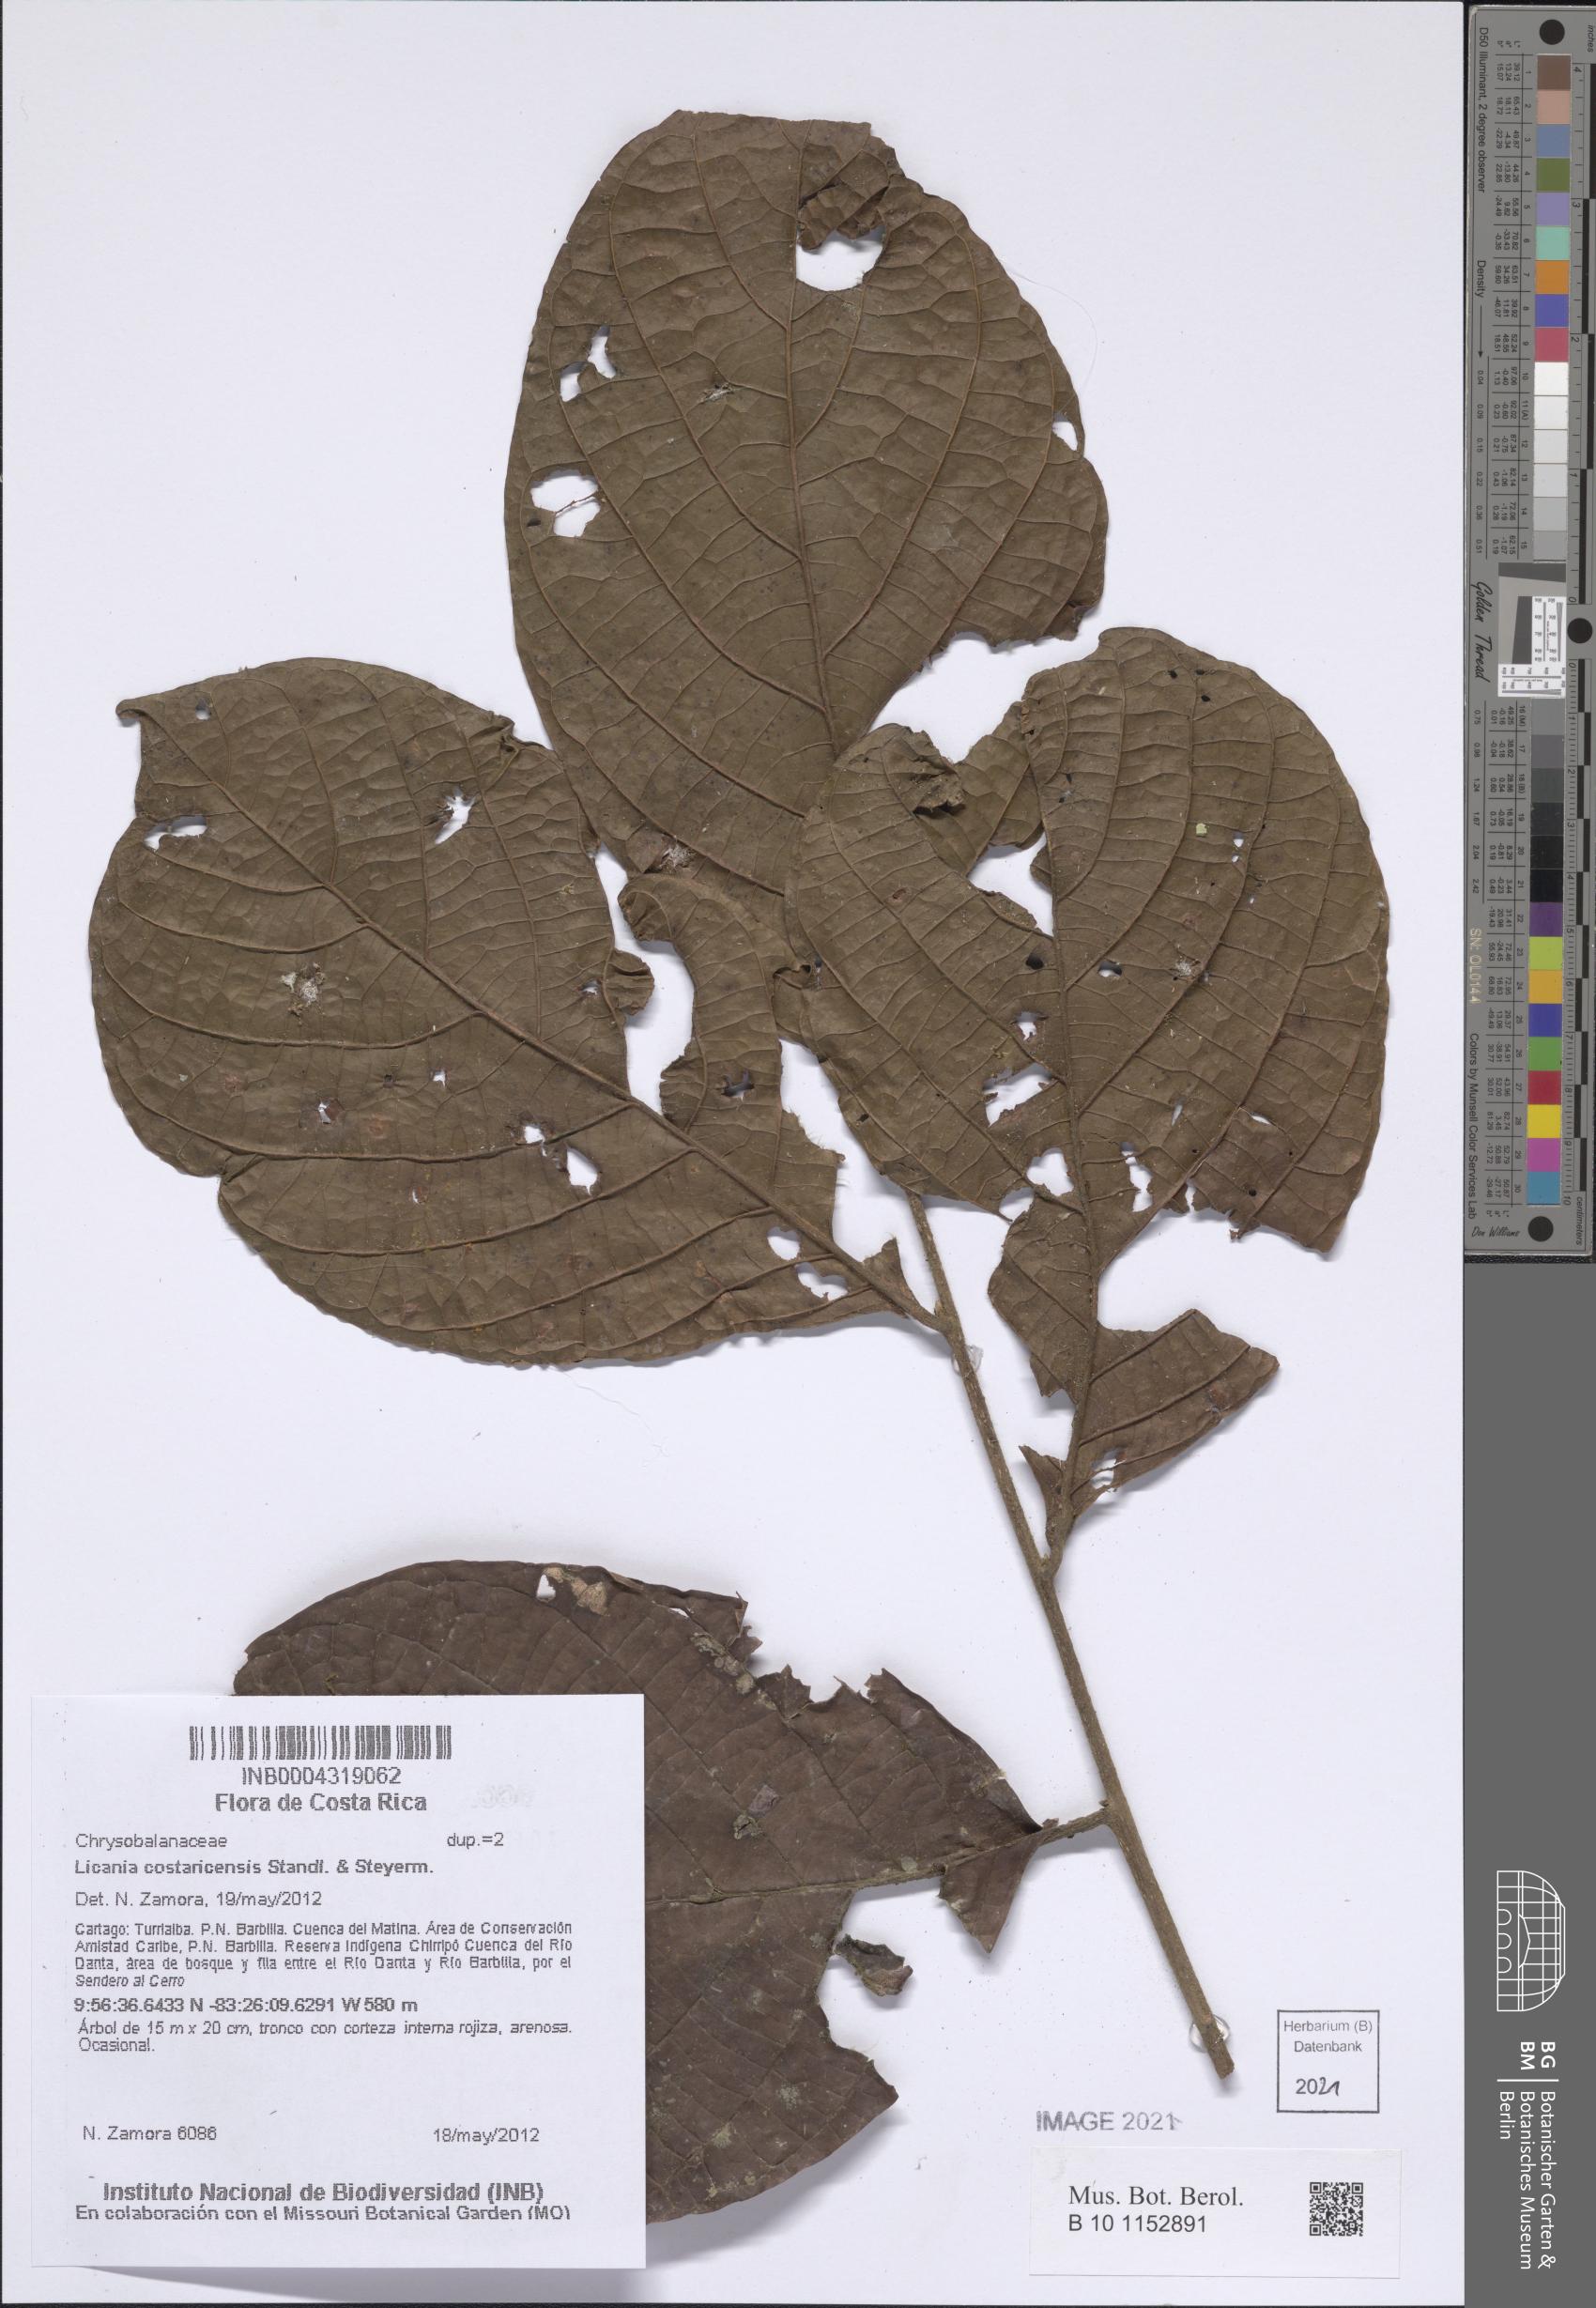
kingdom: Plantae
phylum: Tracheophyta
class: Magnoliopsida
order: Malpighiales
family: Chrysobalanaceae
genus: Hymenopus
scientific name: Hymenopus costaricensis
